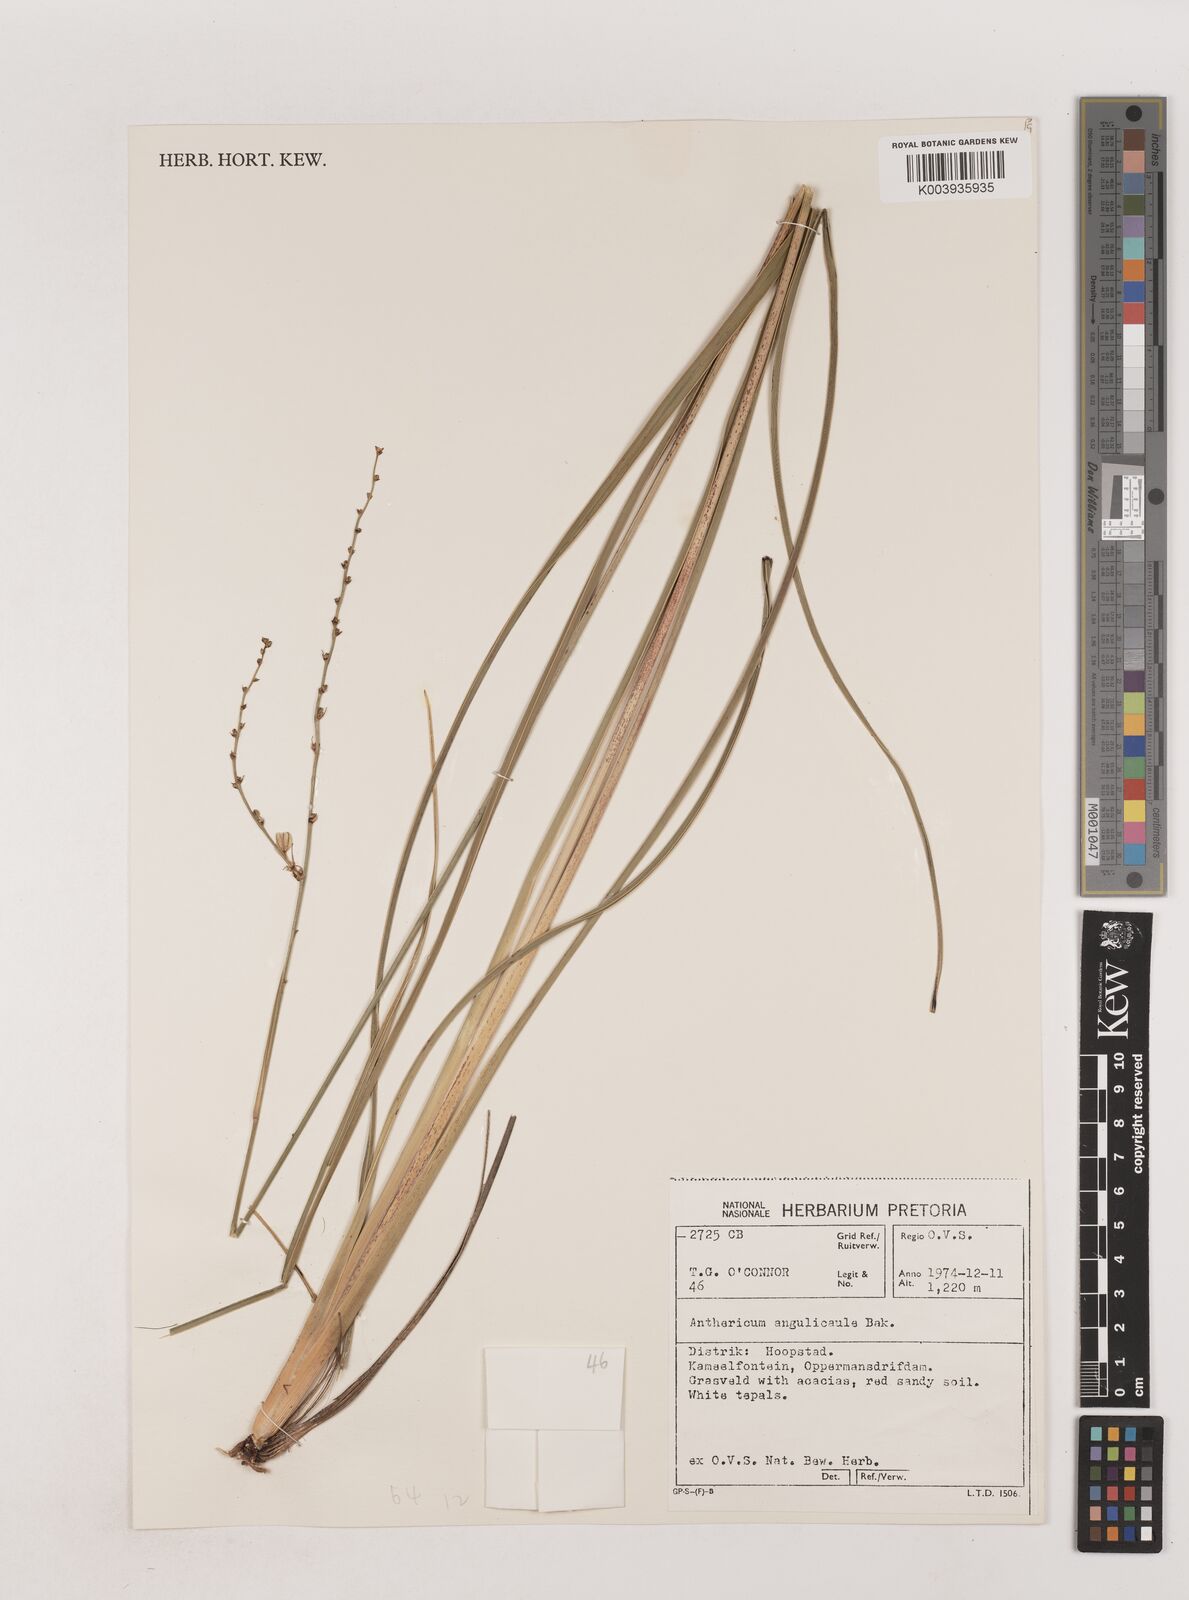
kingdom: Plantae
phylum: Tracheophyta
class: Liliopsida
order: Asparagales
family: Asparagaceae
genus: Chlorophytum
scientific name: Chlorophytum angulicaule
